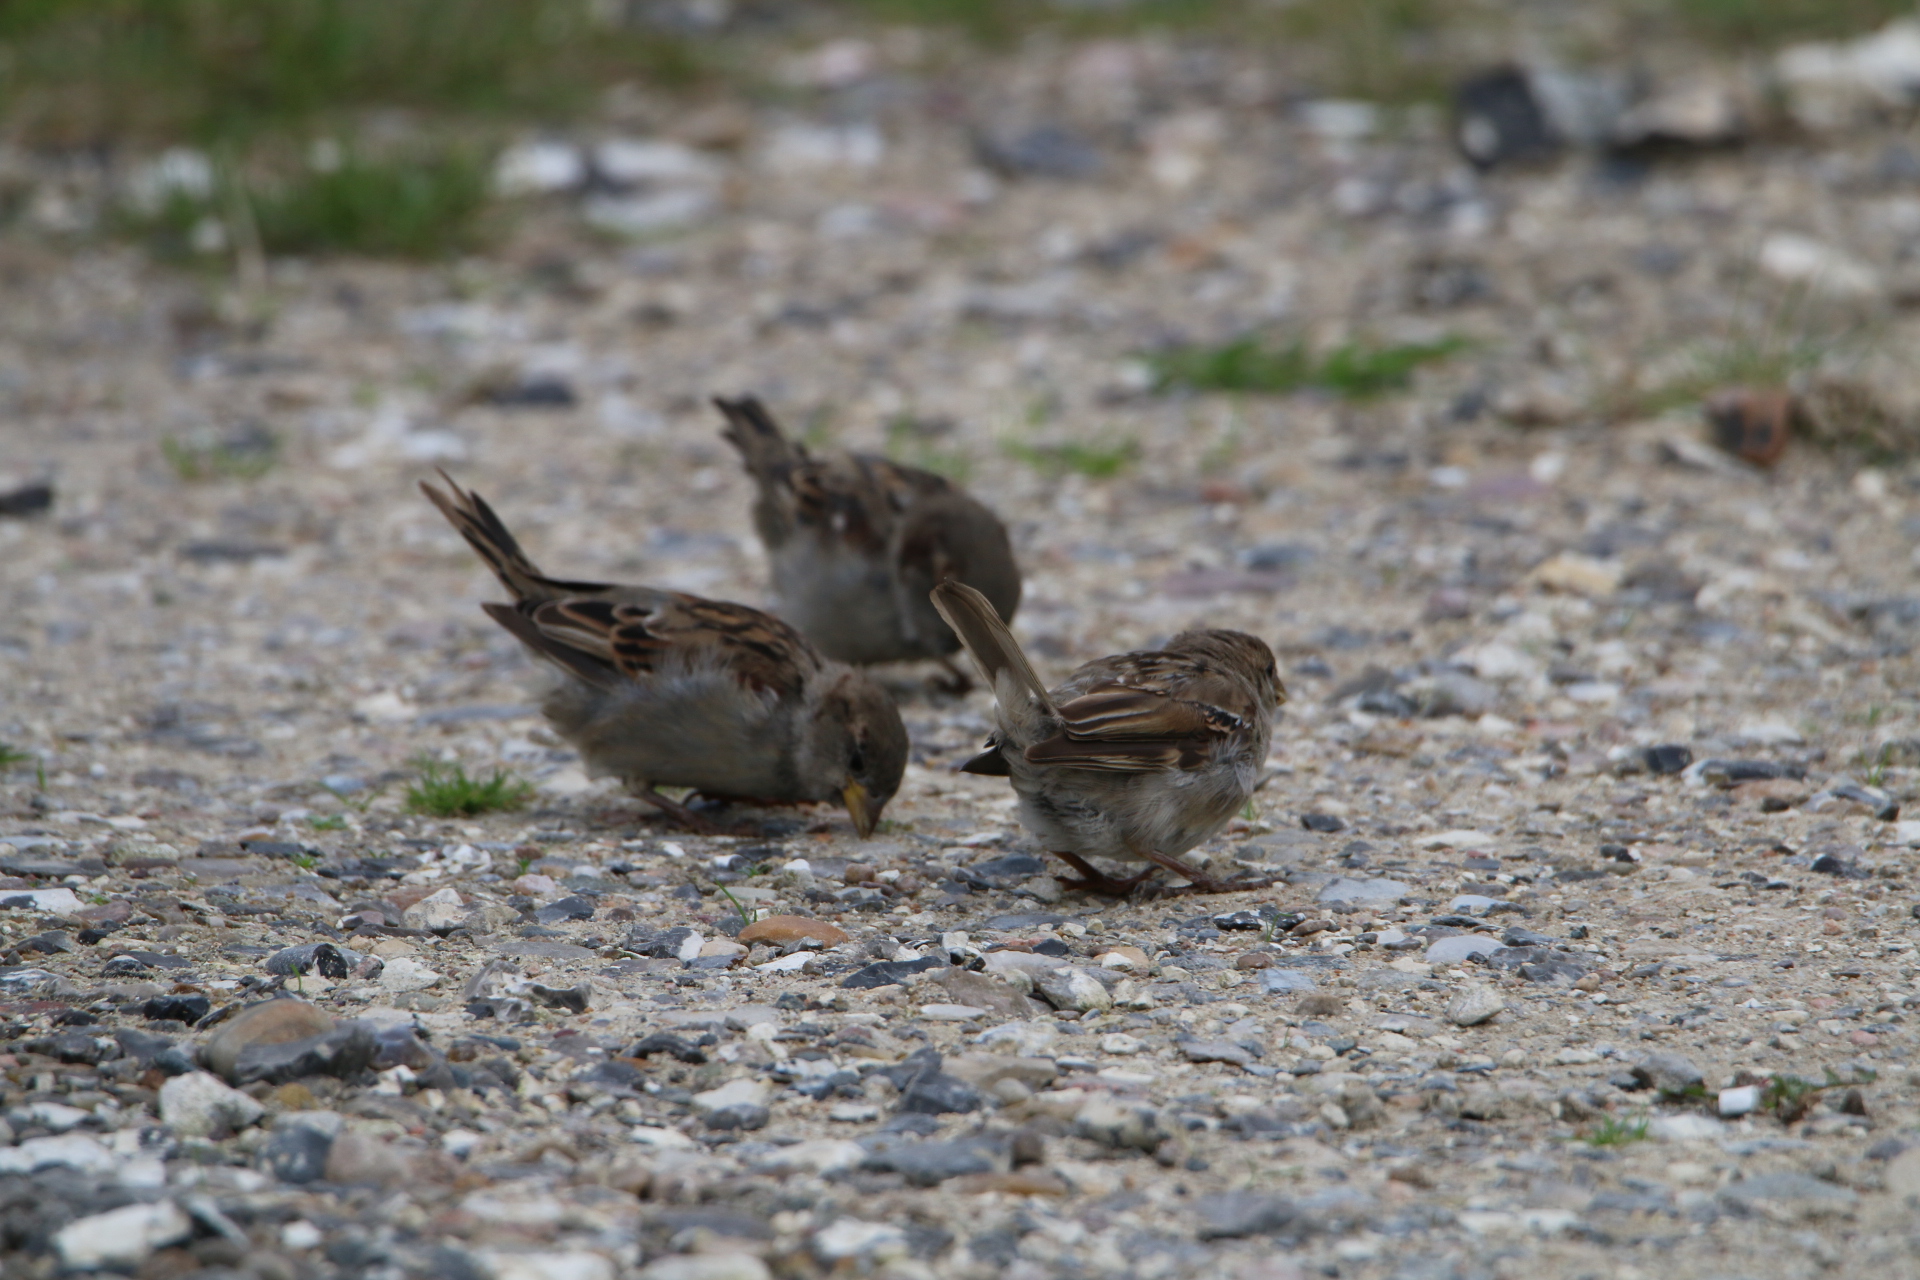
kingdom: Animalia
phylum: Chordata
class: Aves
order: Passeriformes
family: Passeridae
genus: Passer
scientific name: Passer domesticus
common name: Gråspurv
